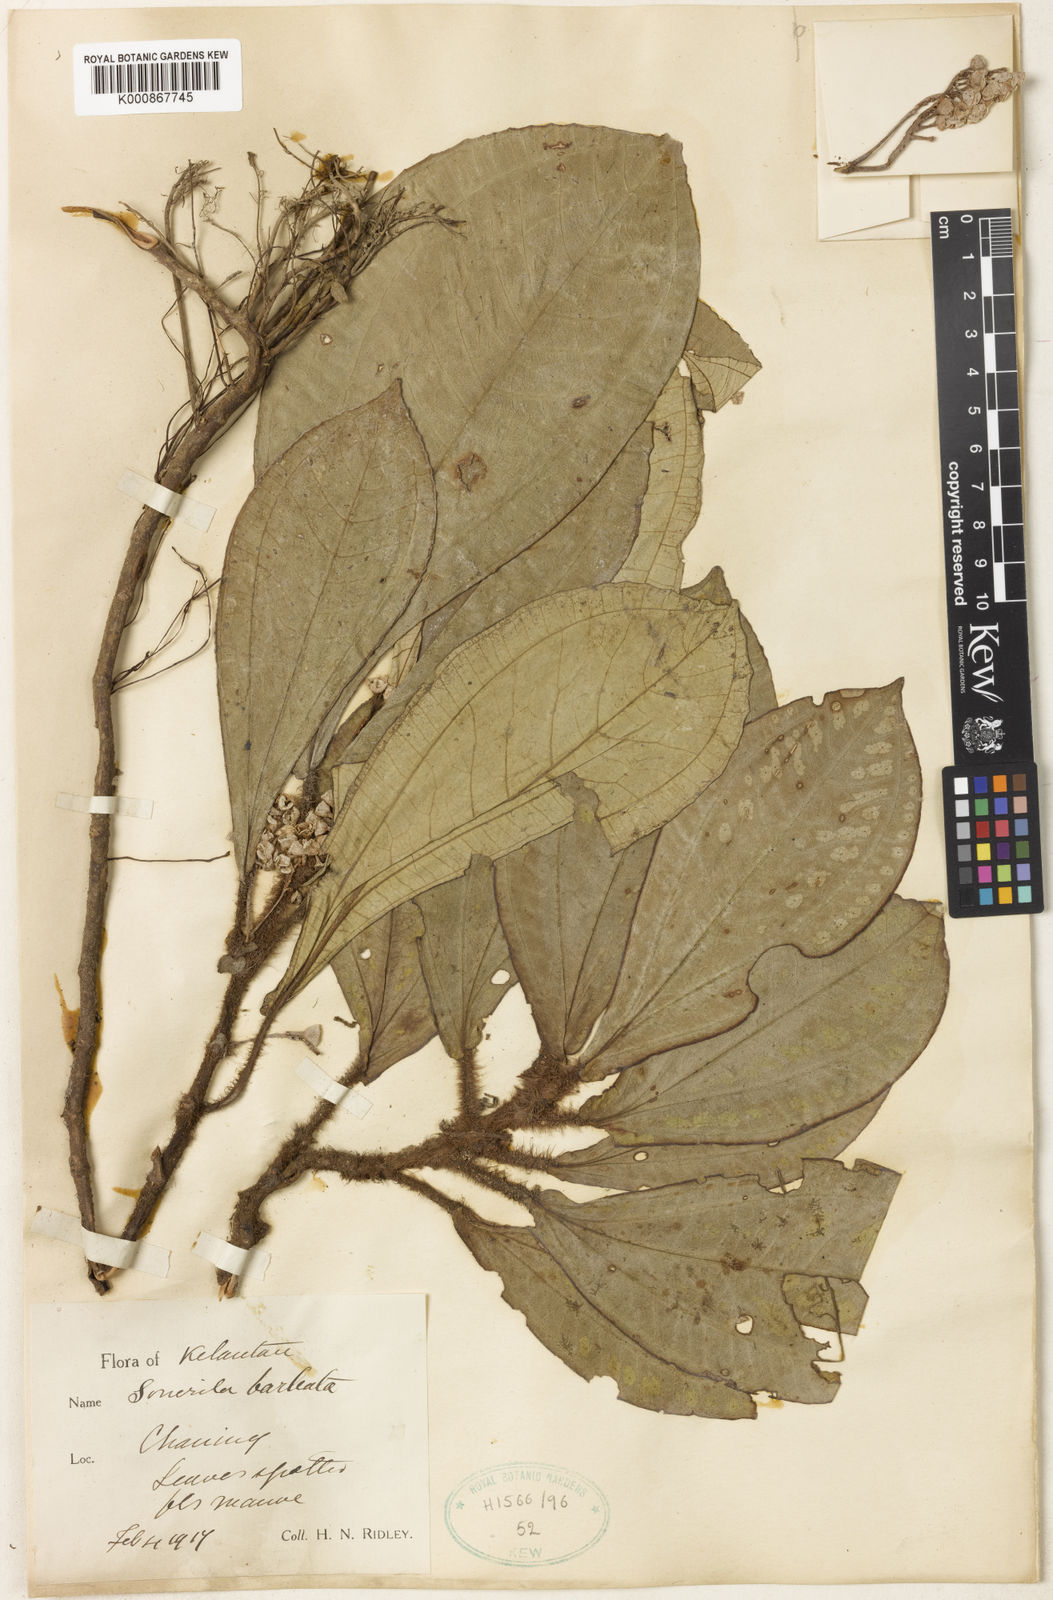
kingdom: Plantae
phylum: Tracheophyta
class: Magnoliopsida
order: Myrtales
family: Melastomataceae
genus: Sonerila
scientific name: Sonerila barbata
